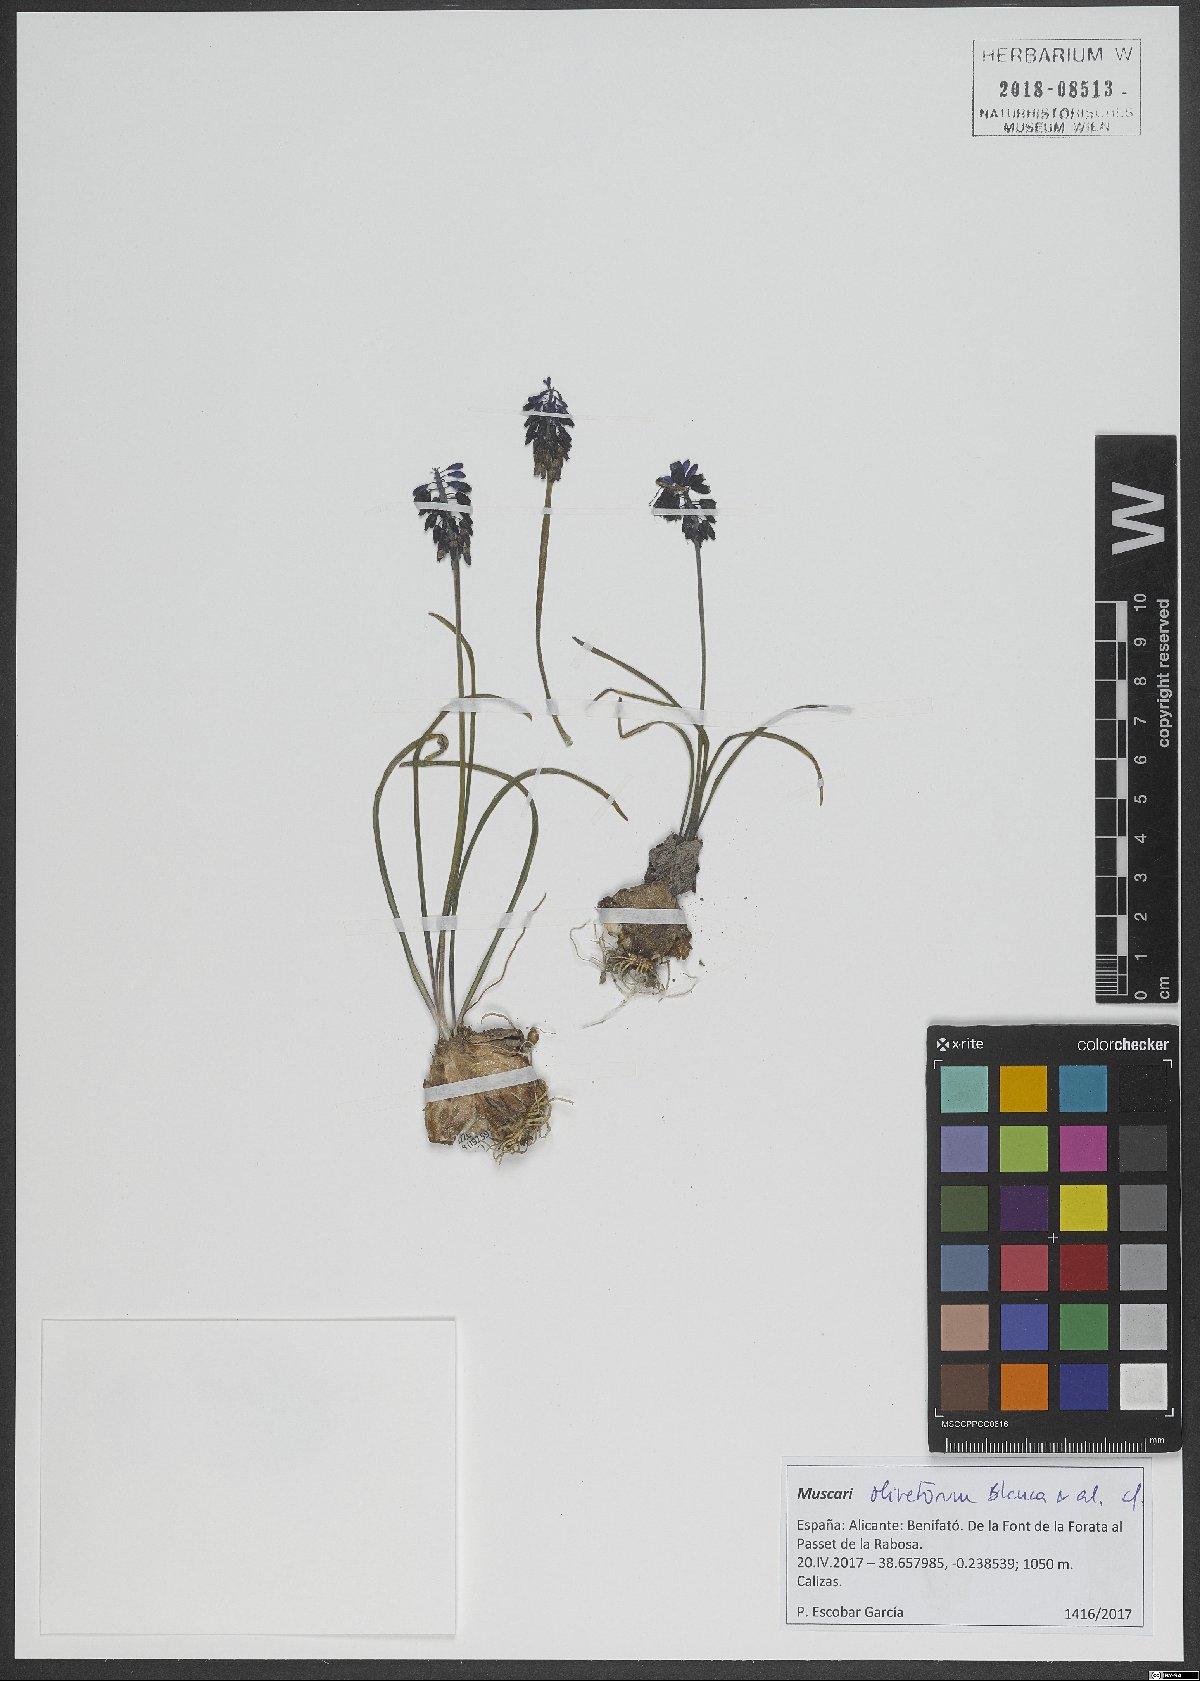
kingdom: Plantae
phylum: Tracheophyta
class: Liliopsida
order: Asparagales
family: Asparagaceae
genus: Muscari
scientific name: Muscari olivetorum
